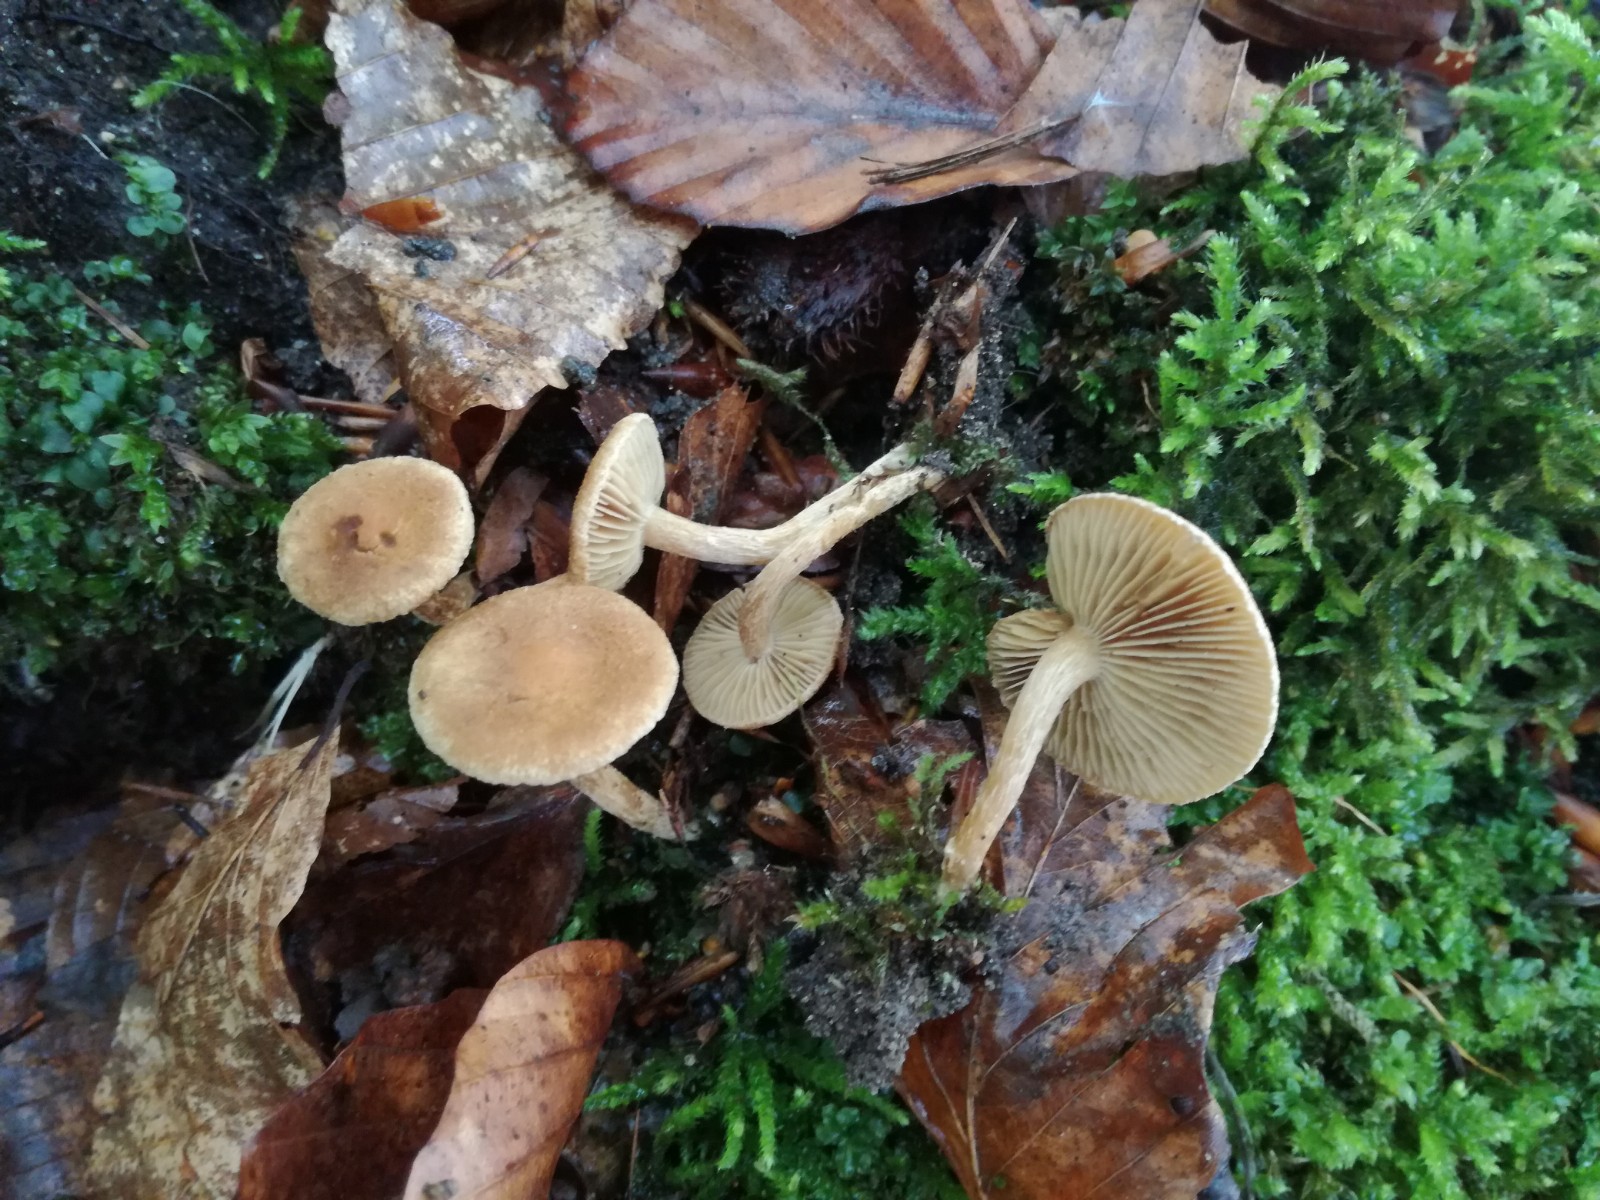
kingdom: Fungi
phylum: Basidiomycota
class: Agaricomycetes
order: Agaricales
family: Inocybaceae
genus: Inocybe
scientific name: Inocybe dulcamara
